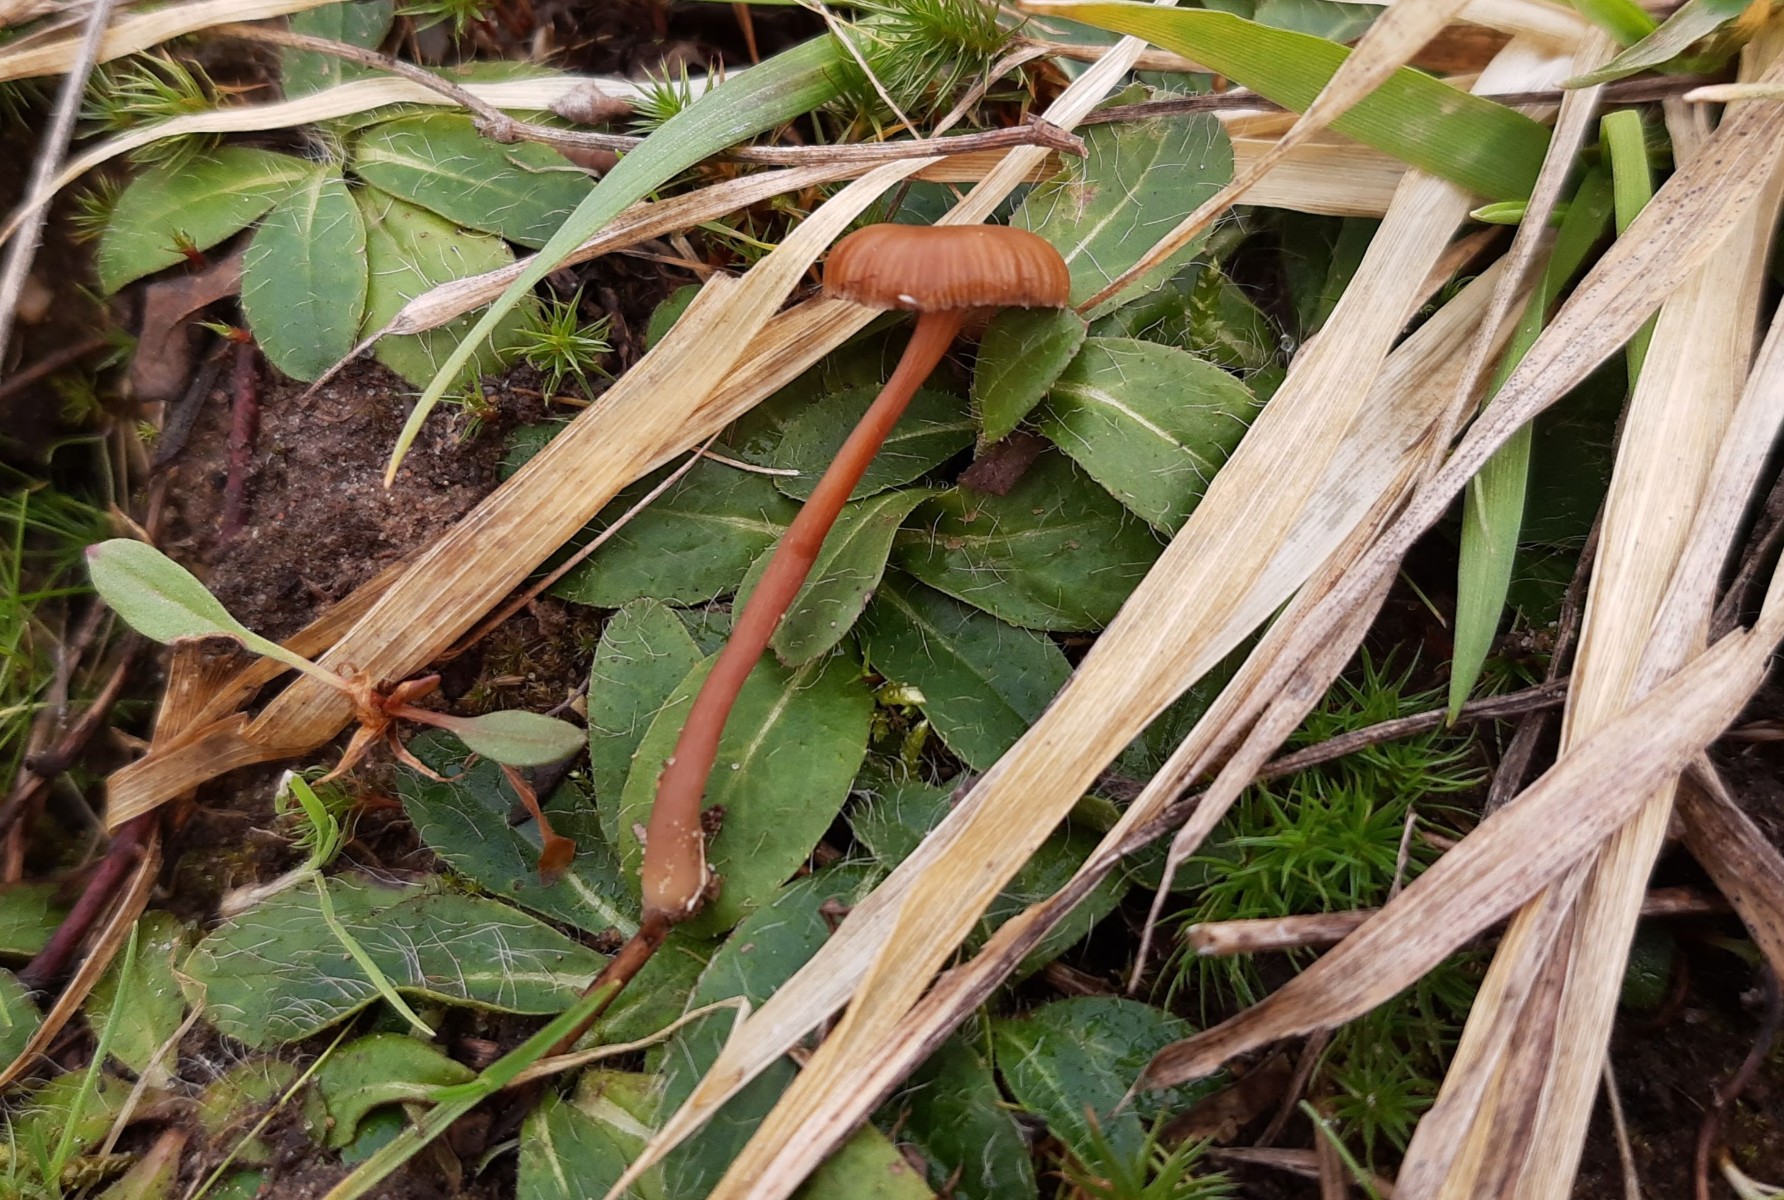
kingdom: Fungi
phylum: Basidiomycota
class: Agaricomycetes
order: Agaricales
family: Strophariaceae
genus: Deconica
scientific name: Deconica montana
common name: rødbrun stråhat
